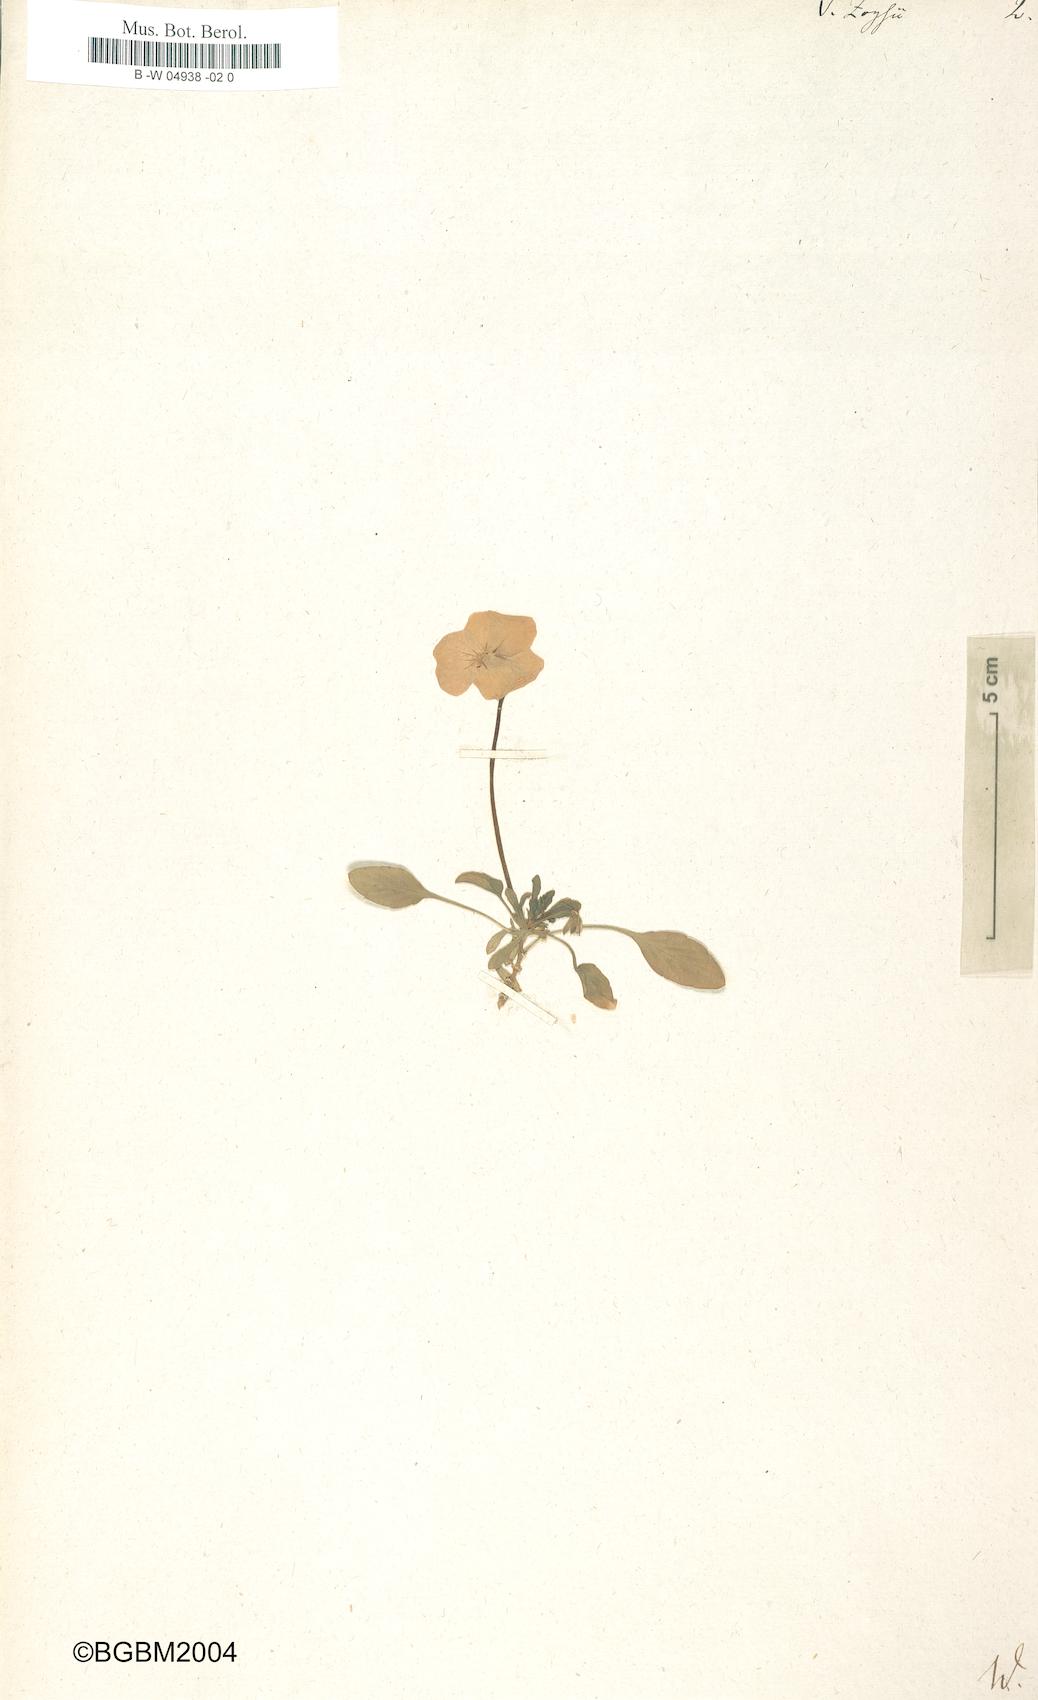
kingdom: Plantae
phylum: Tracheophyta
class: Magnoliopsida
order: Malpighiales
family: Violaceae
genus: Viola
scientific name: Viola calcarata
